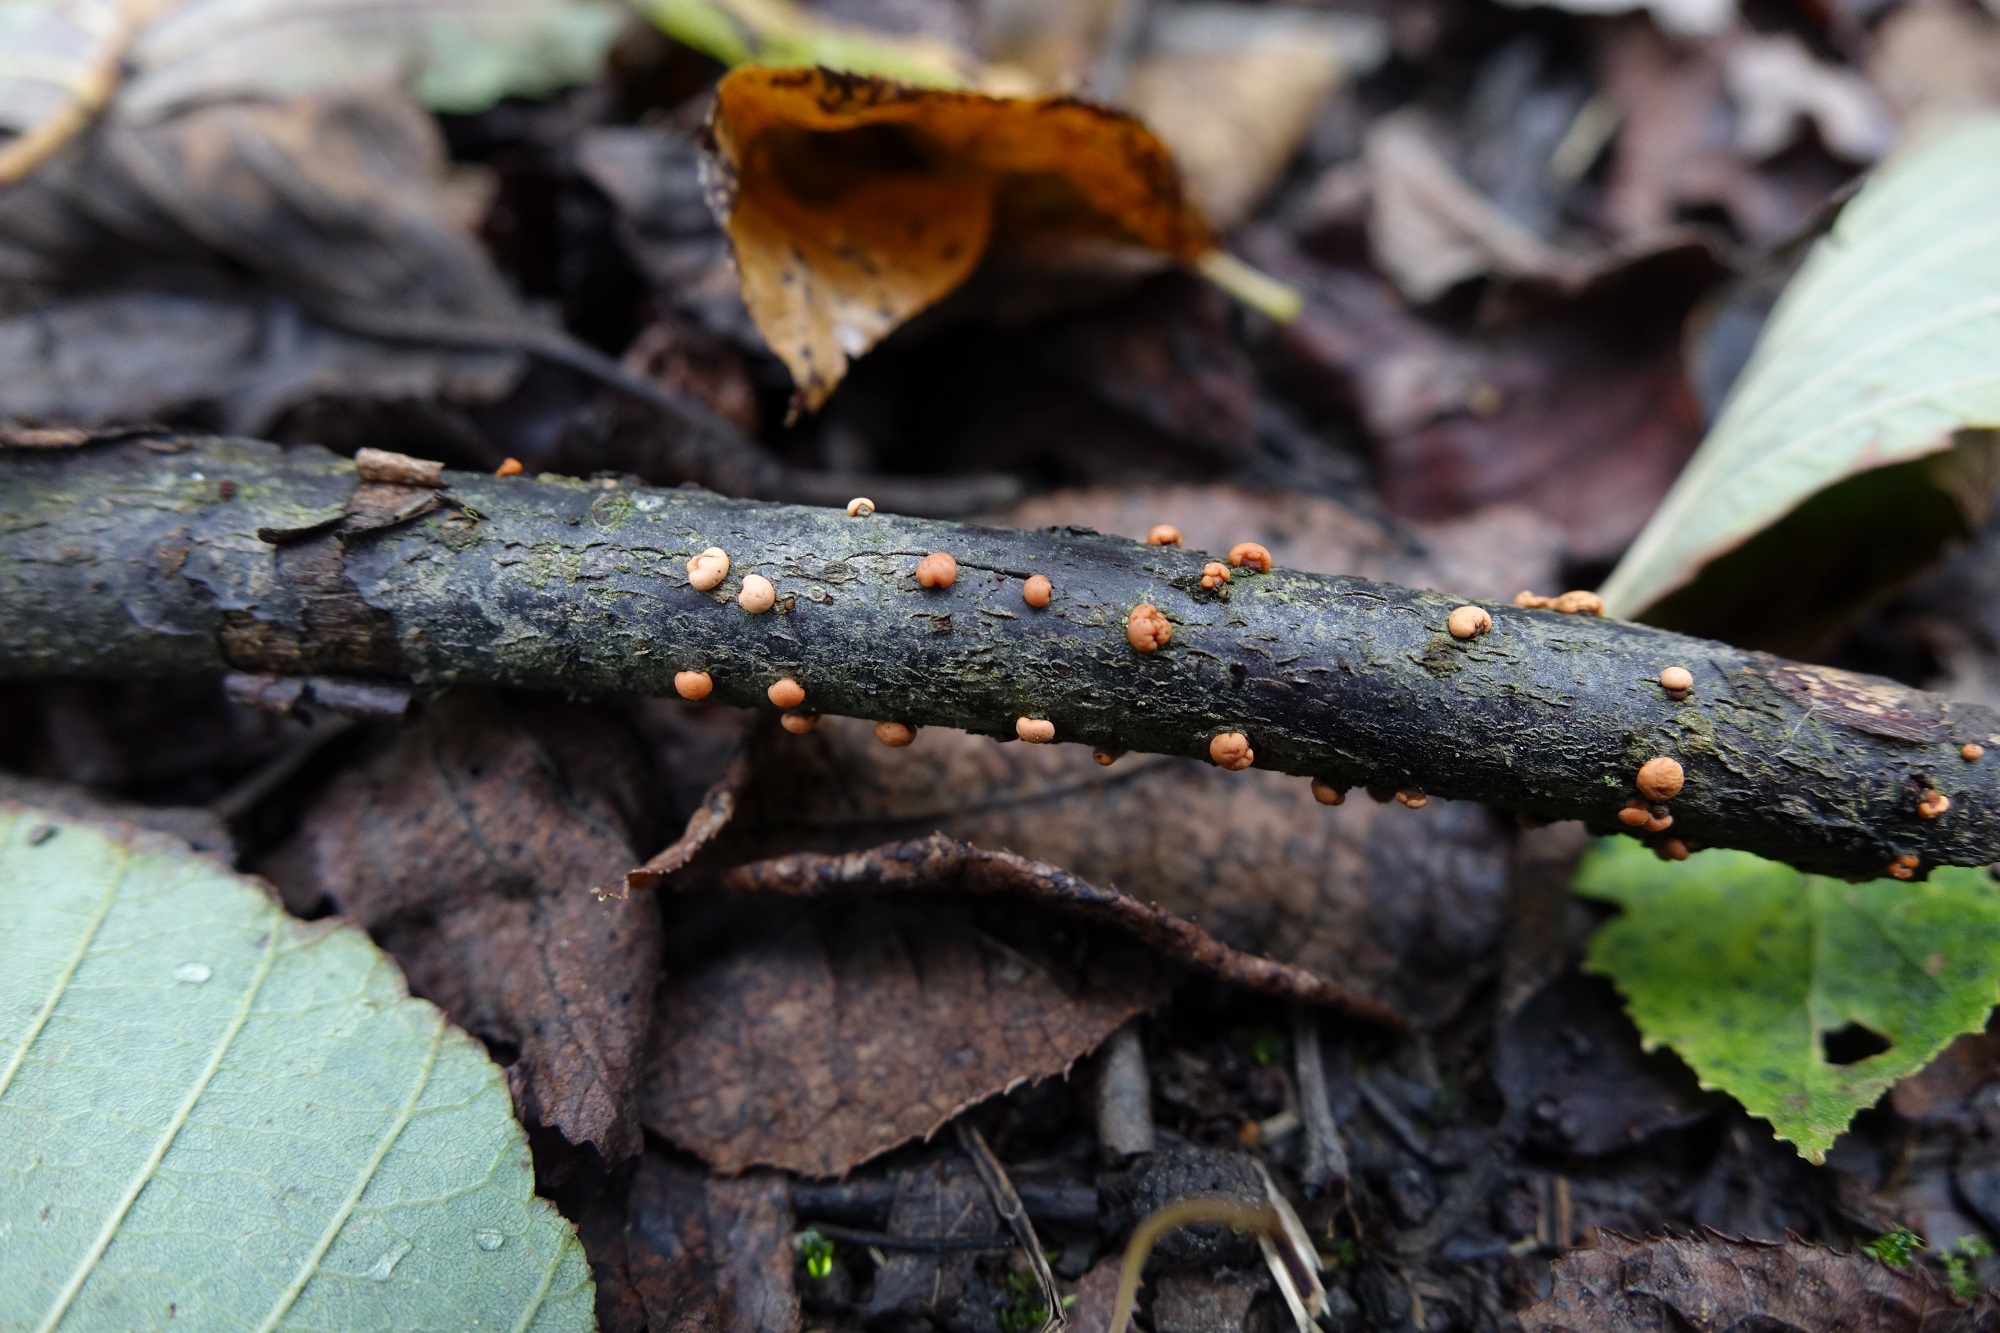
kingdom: Fungi
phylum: Ascomycota
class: Sordariomycetes
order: Hypocreales
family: Nectriaceae
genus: Nectria
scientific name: Nectria cinnabarina
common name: Coral spot
